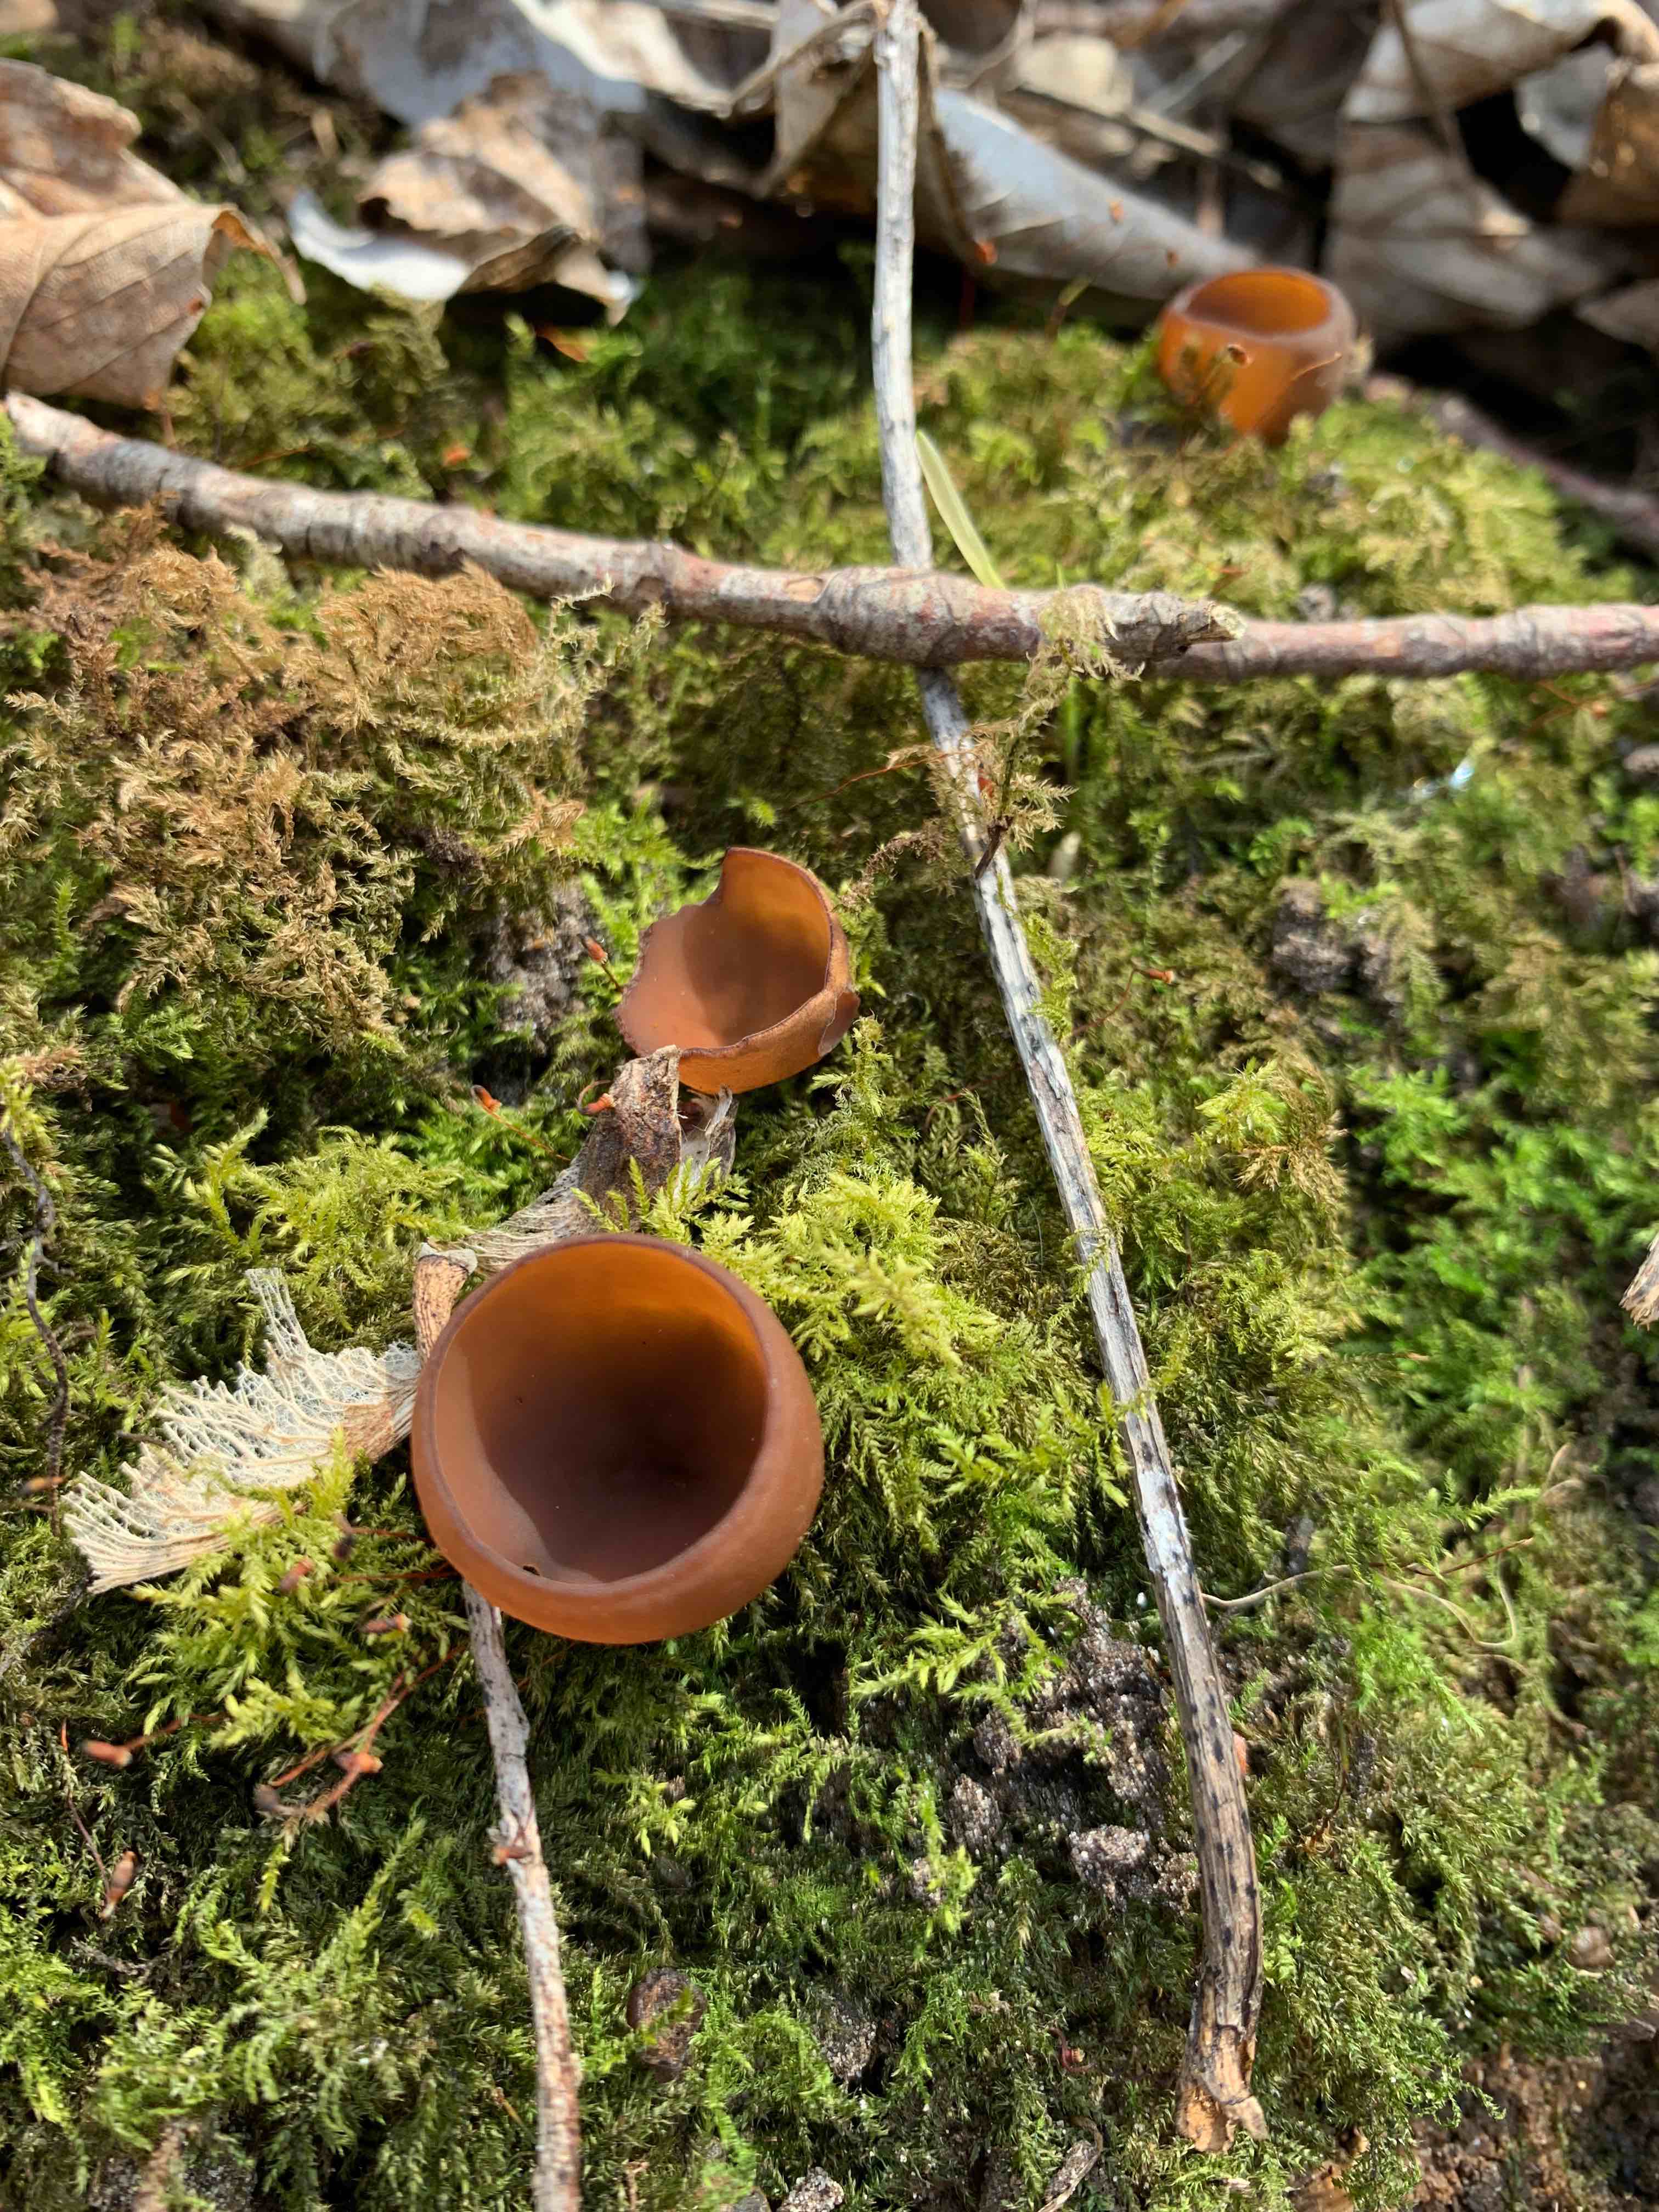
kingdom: Fungi
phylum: Ascomycota
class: Leotiomycetes
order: Helotiales
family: Sclerotiniaceae
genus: Dumontinia
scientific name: Dumontinia tuberosa
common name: anemone-knoldskive
